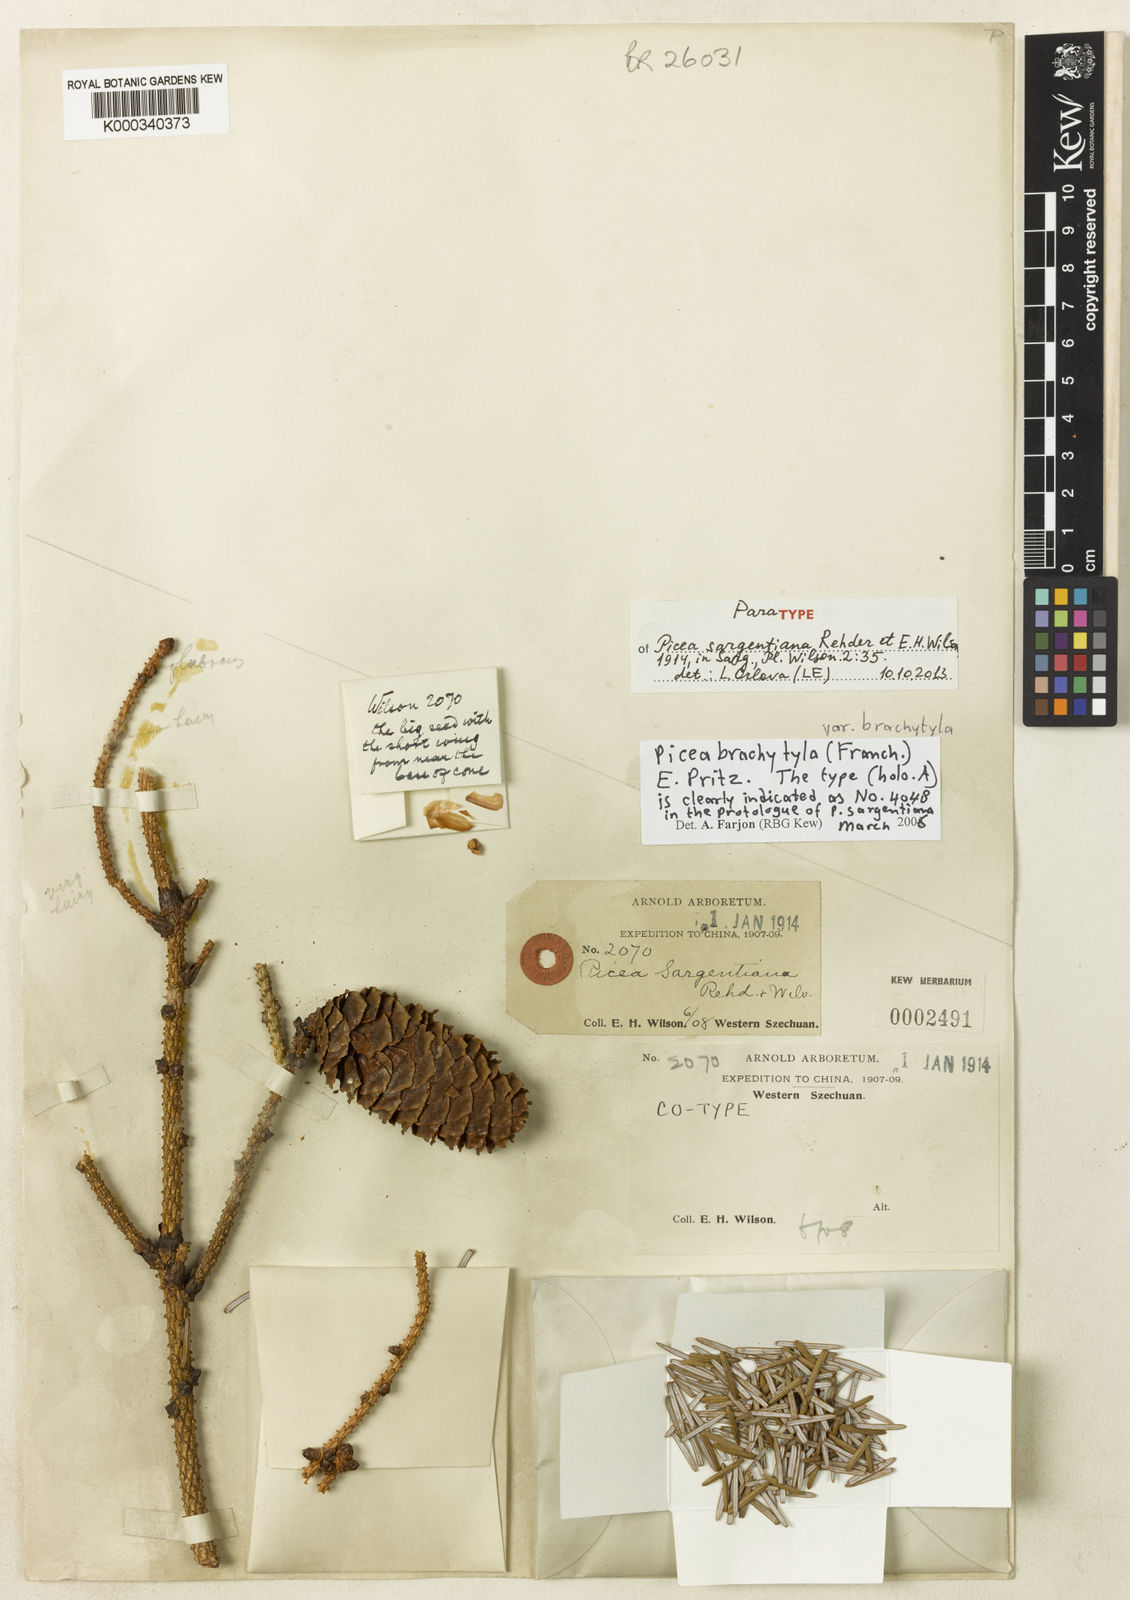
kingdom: Plantae
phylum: Tracheophyta
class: Pinopsida
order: Pinales
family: Pinaceae
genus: Picea
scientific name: Picea brachytyla
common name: Sargent's spruce
